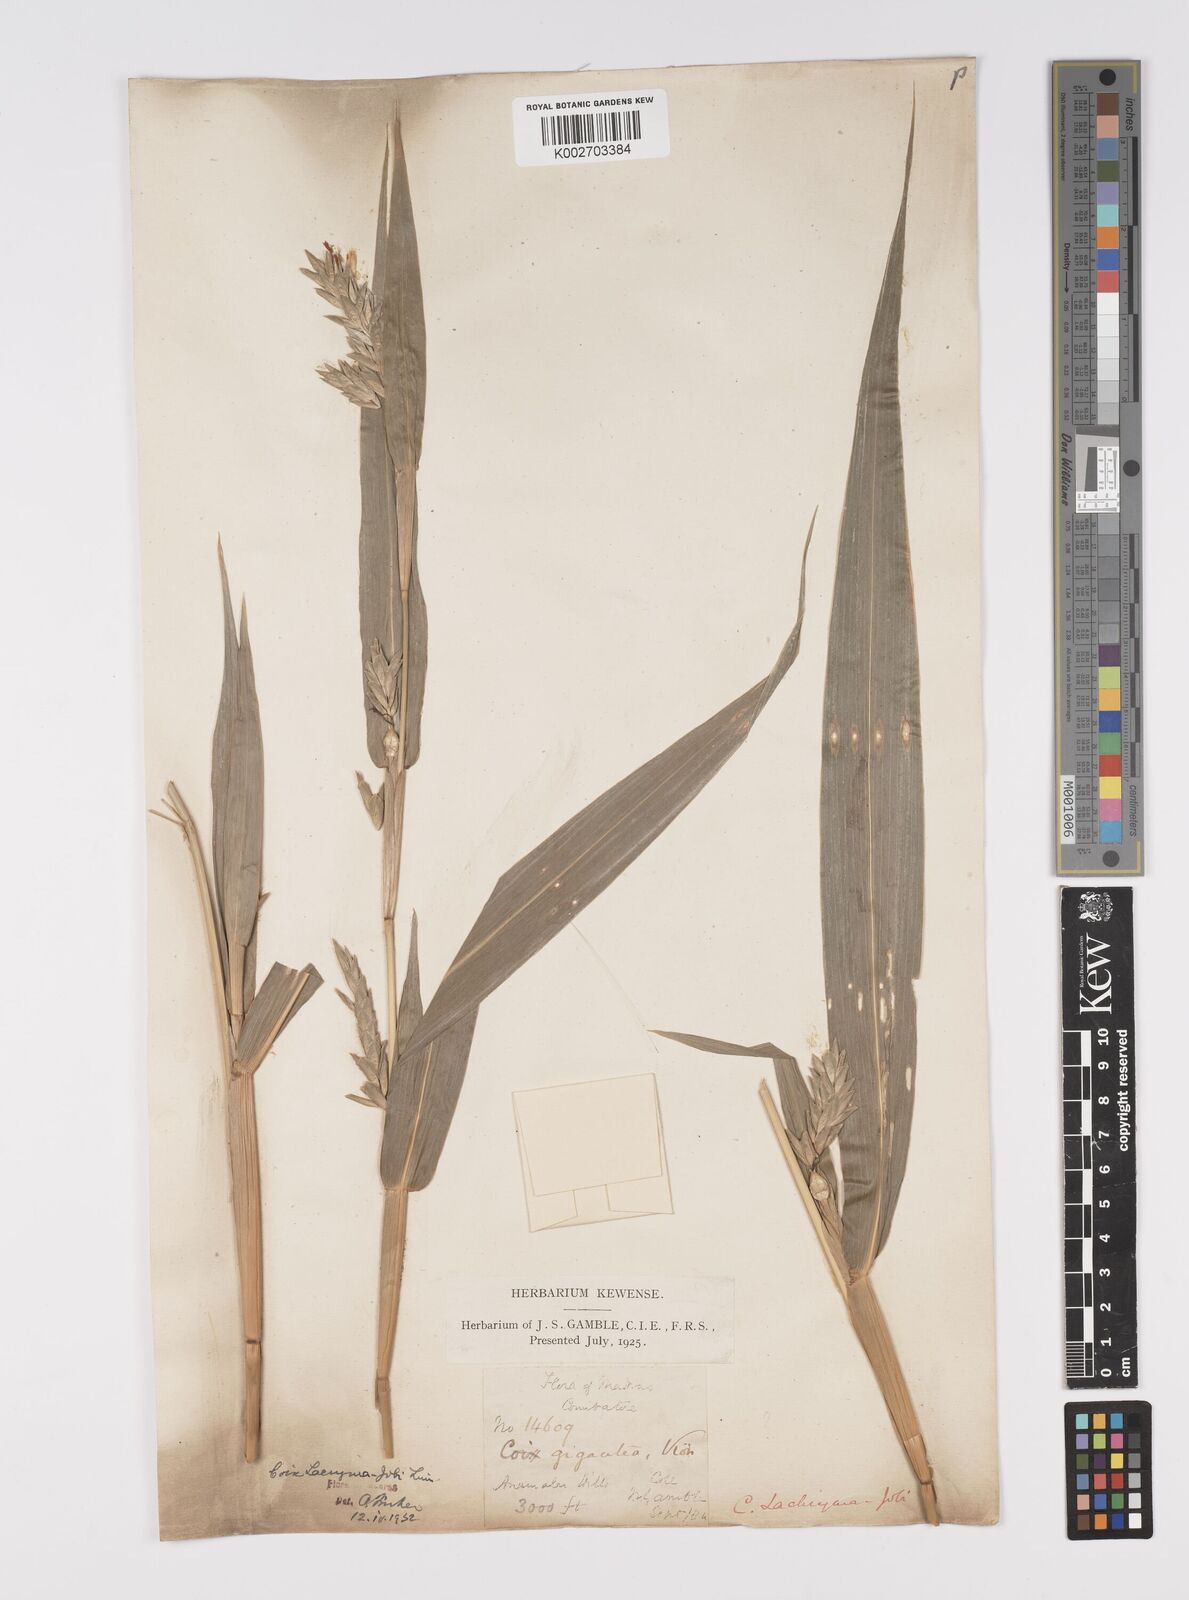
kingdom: Plantae
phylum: Tracheophyta
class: Liliopsida
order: Poales
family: Poaceae
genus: Coix
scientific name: Coix lacryma-jobi
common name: Job's tears
